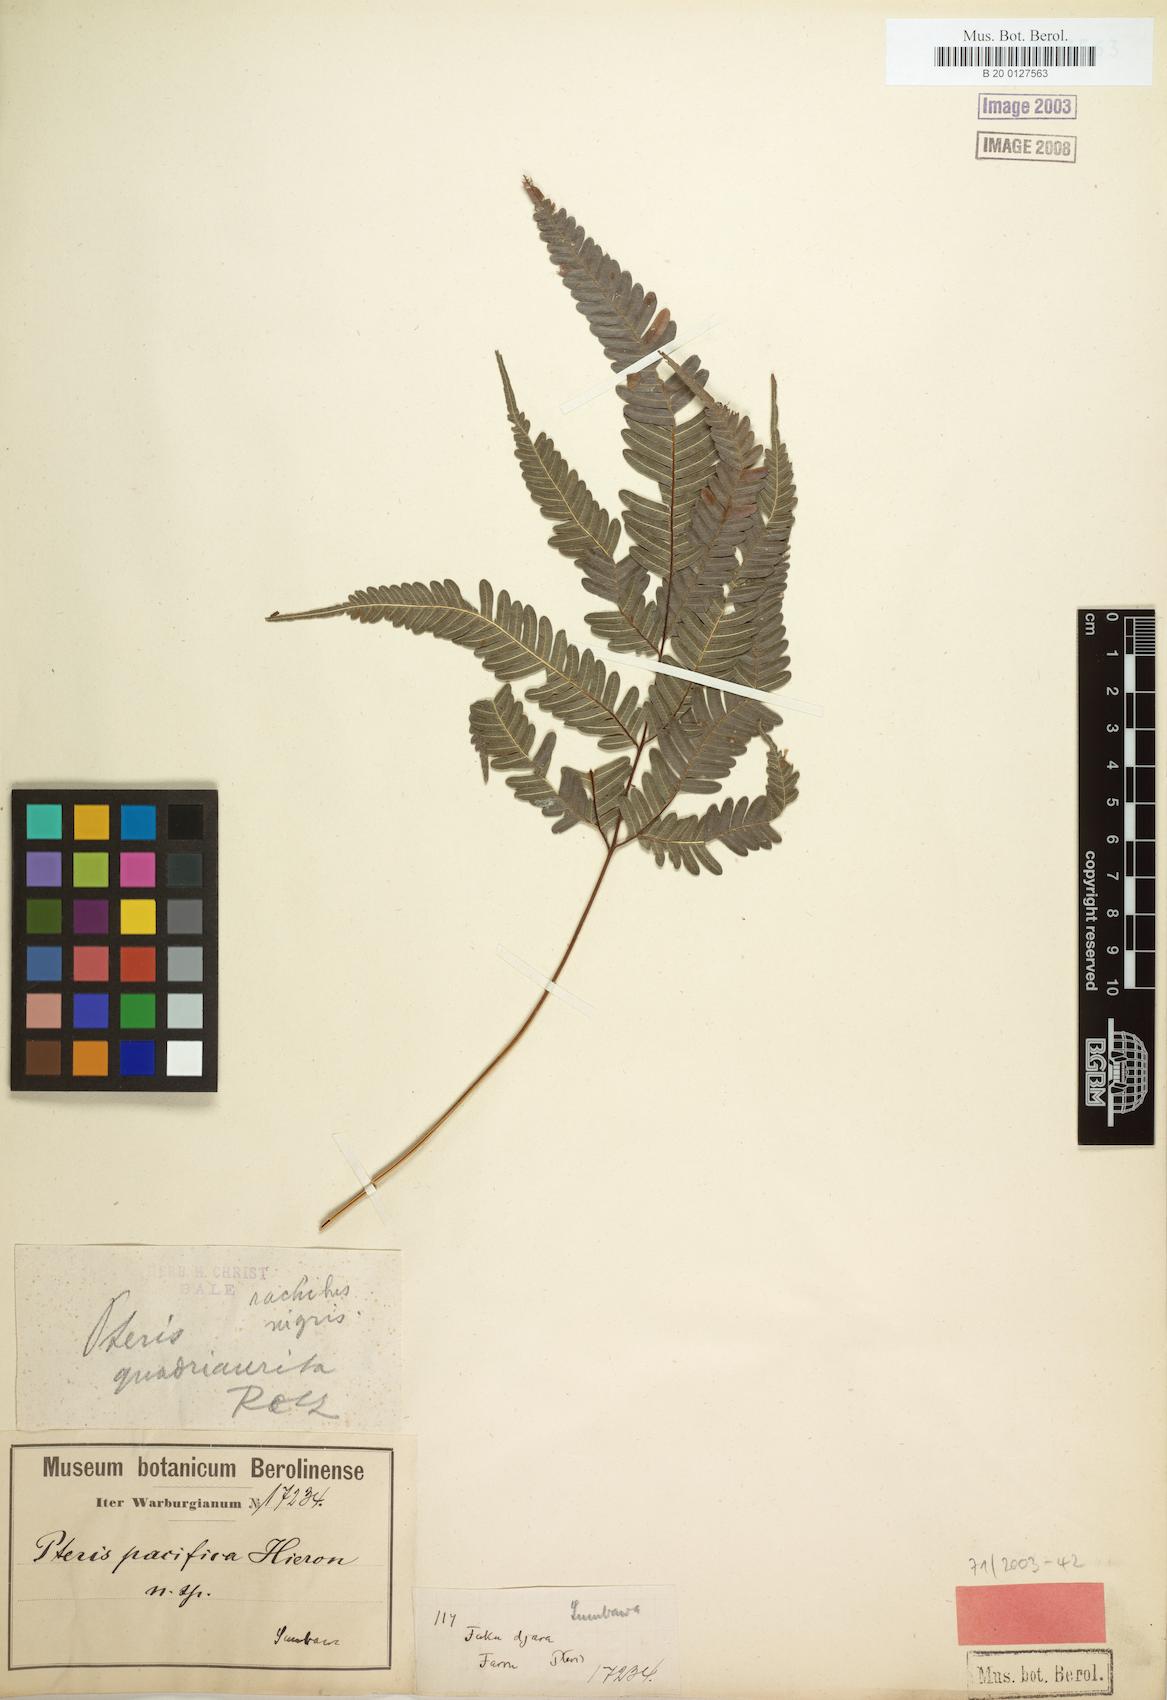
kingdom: Plantae
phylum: Tracheophyta
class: Polypodiopsida
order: Polypodiales
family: Pteridaceae
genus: Pteris
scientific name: Pteris biaurita
